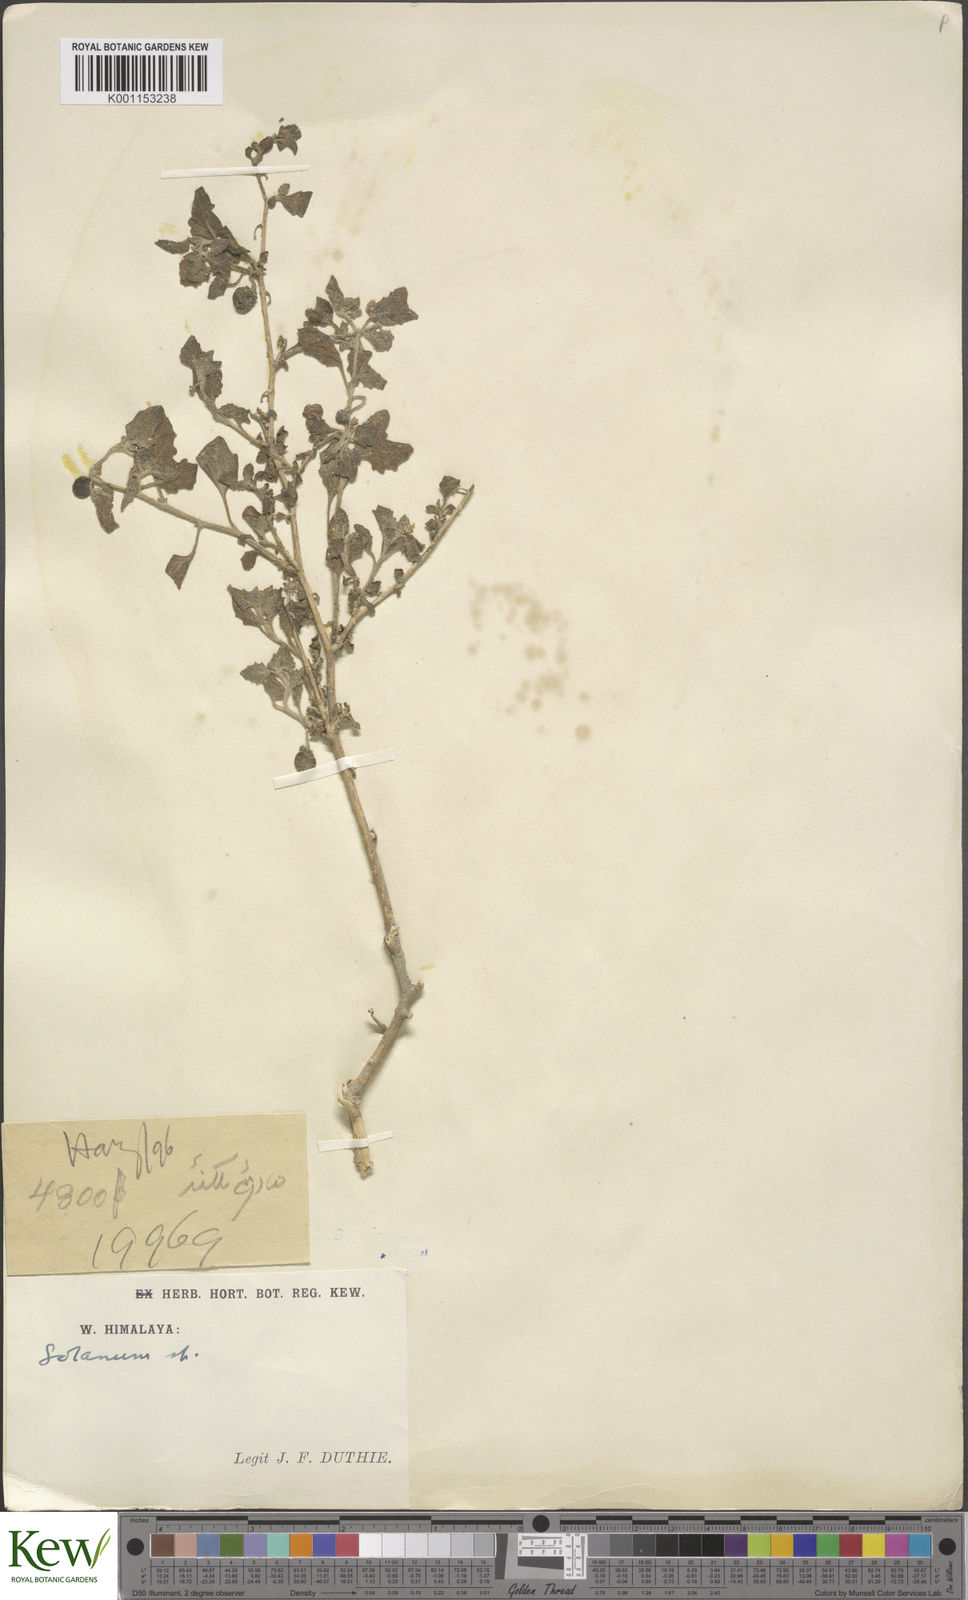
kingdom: Plantae
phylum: Tracheophyta
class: Magnoliopsida
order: Solanales
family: Solanaceae
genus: Solanum
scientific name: Solanum
